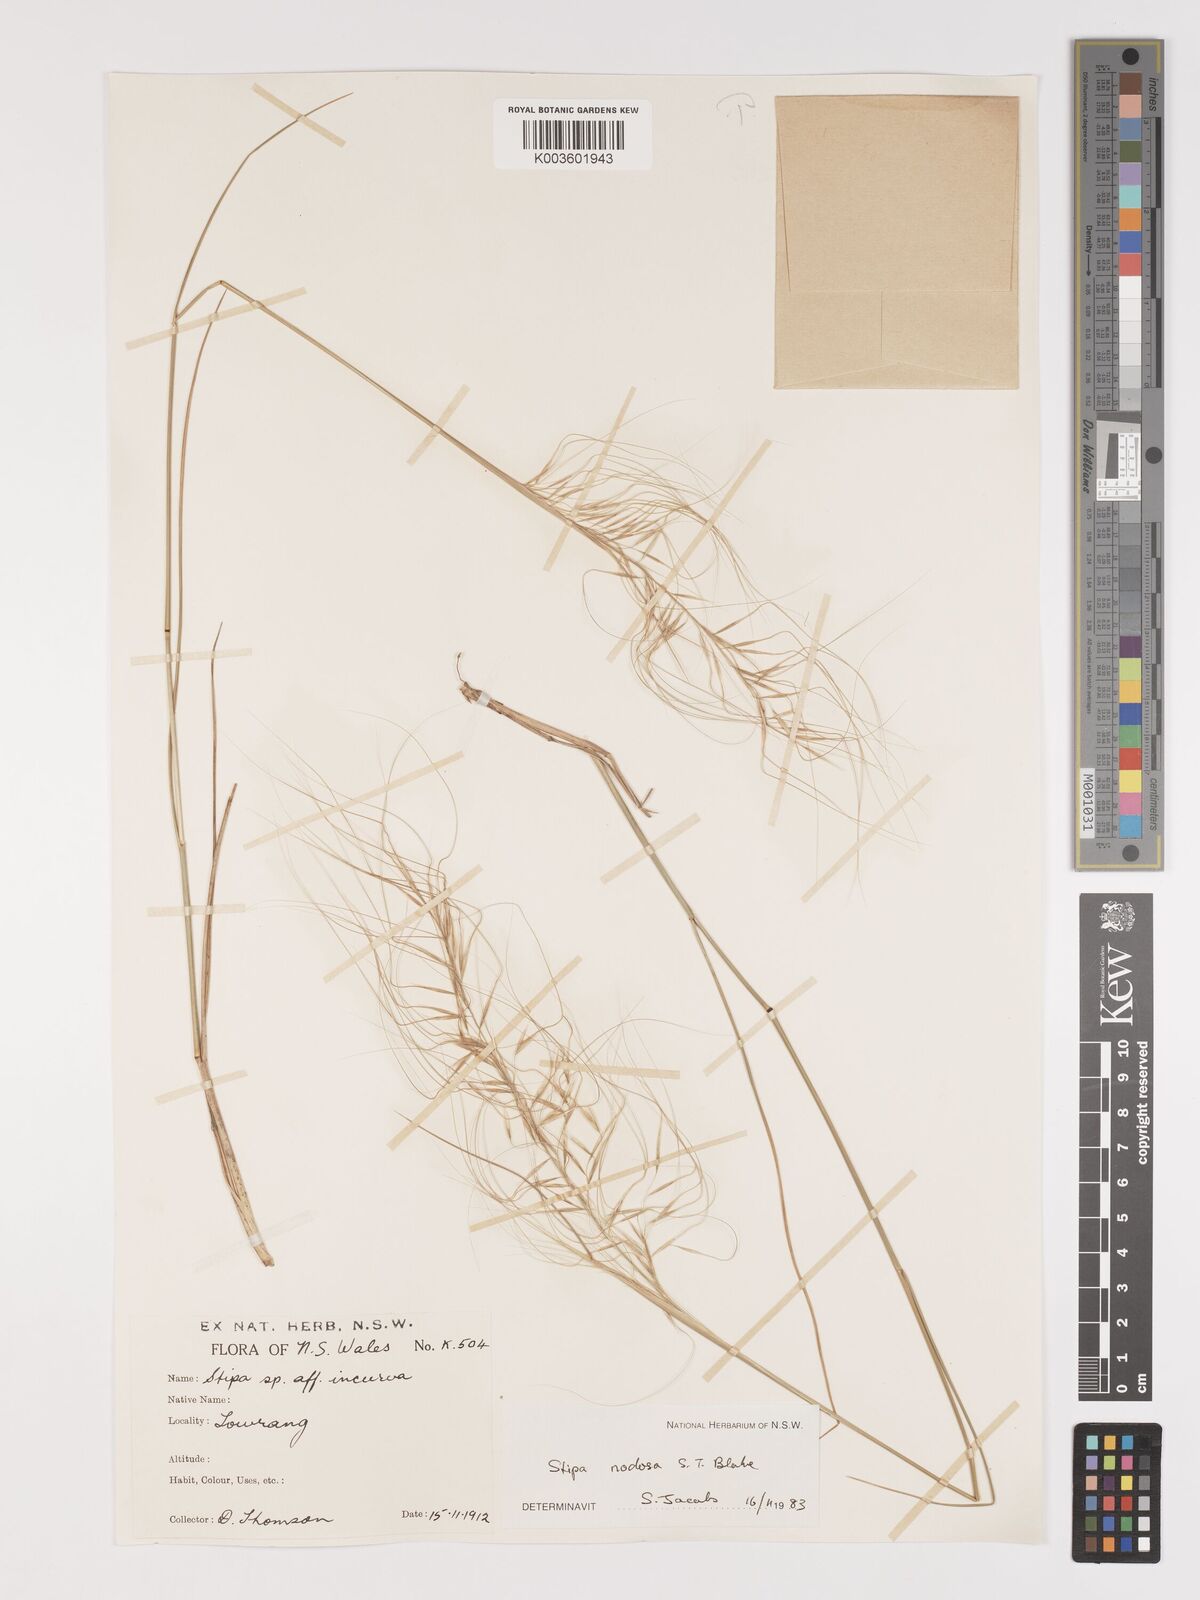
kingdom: Plantae
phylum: Tracheophyta
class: Liliopsida
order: Poales
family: Poaceae
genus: Austrostipa
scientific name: Austrostipa nodosa
